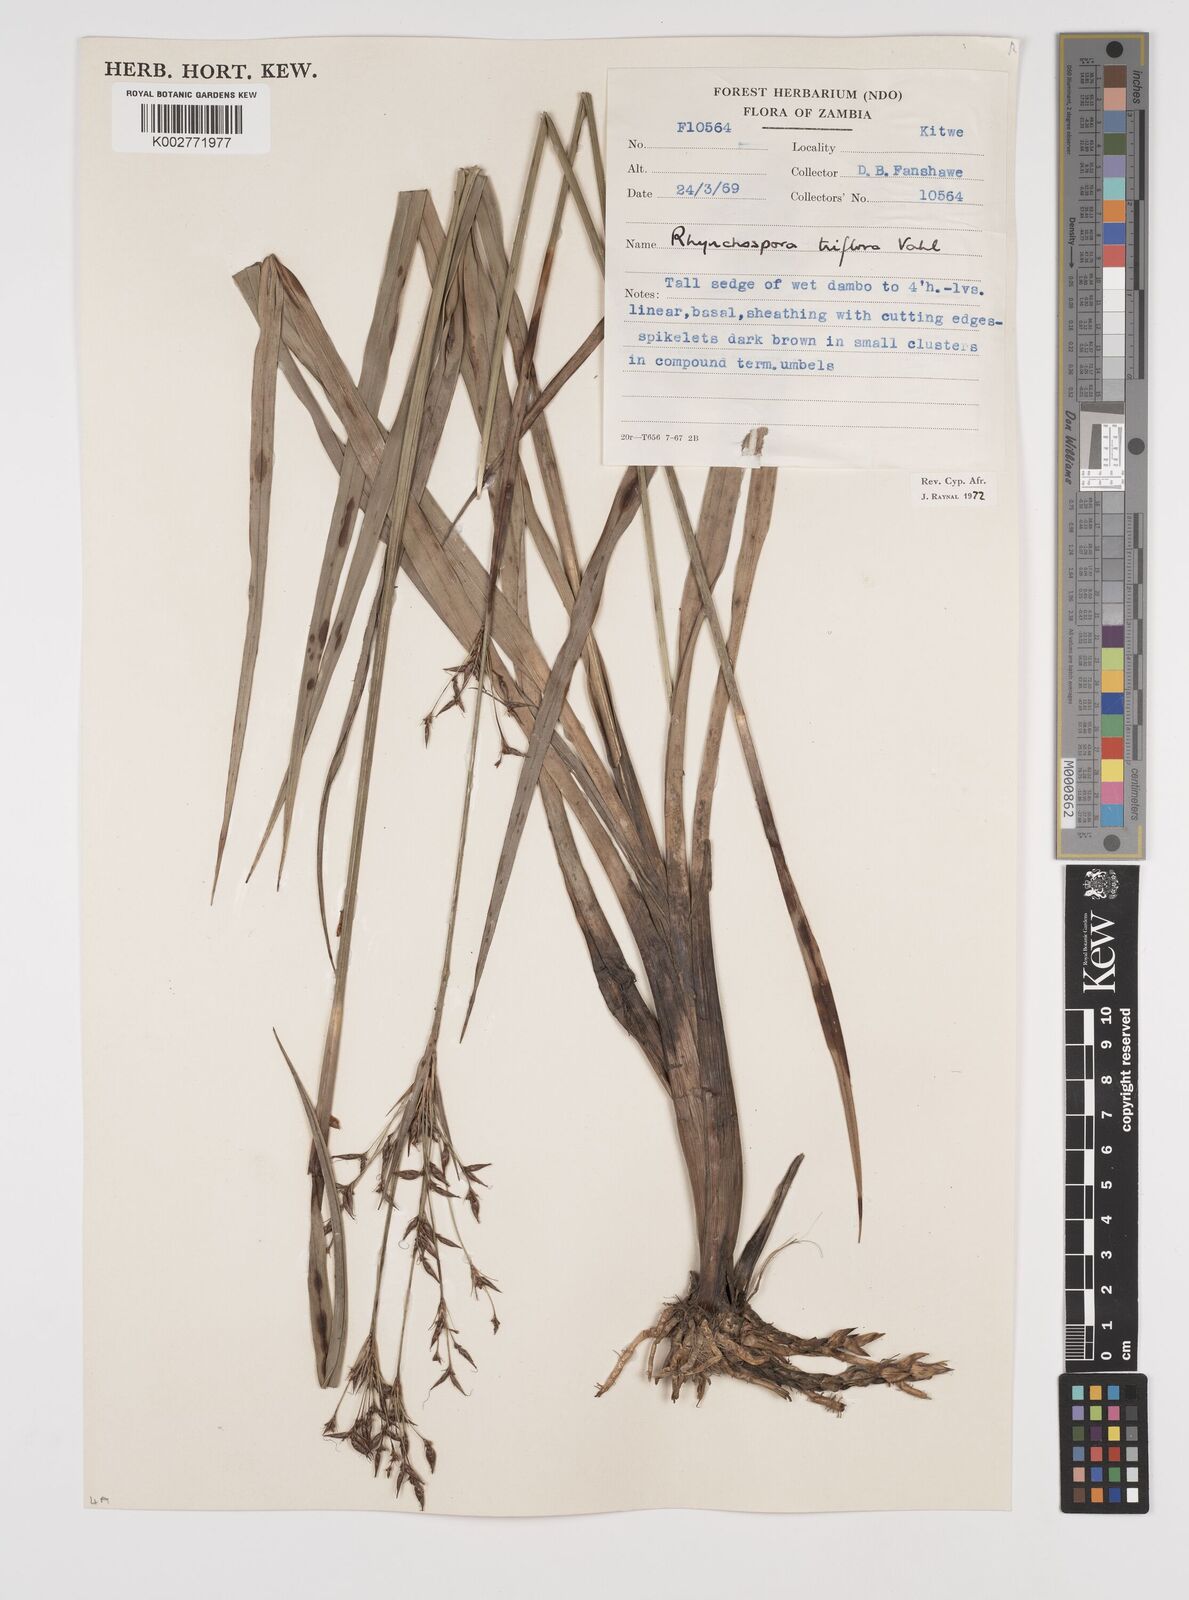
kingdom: Plantae
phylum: Tracheophyta
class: Liliopsida
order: Poales
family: Cyperaceae
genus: Rhynchospora
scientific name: Rhynchospora triflora
